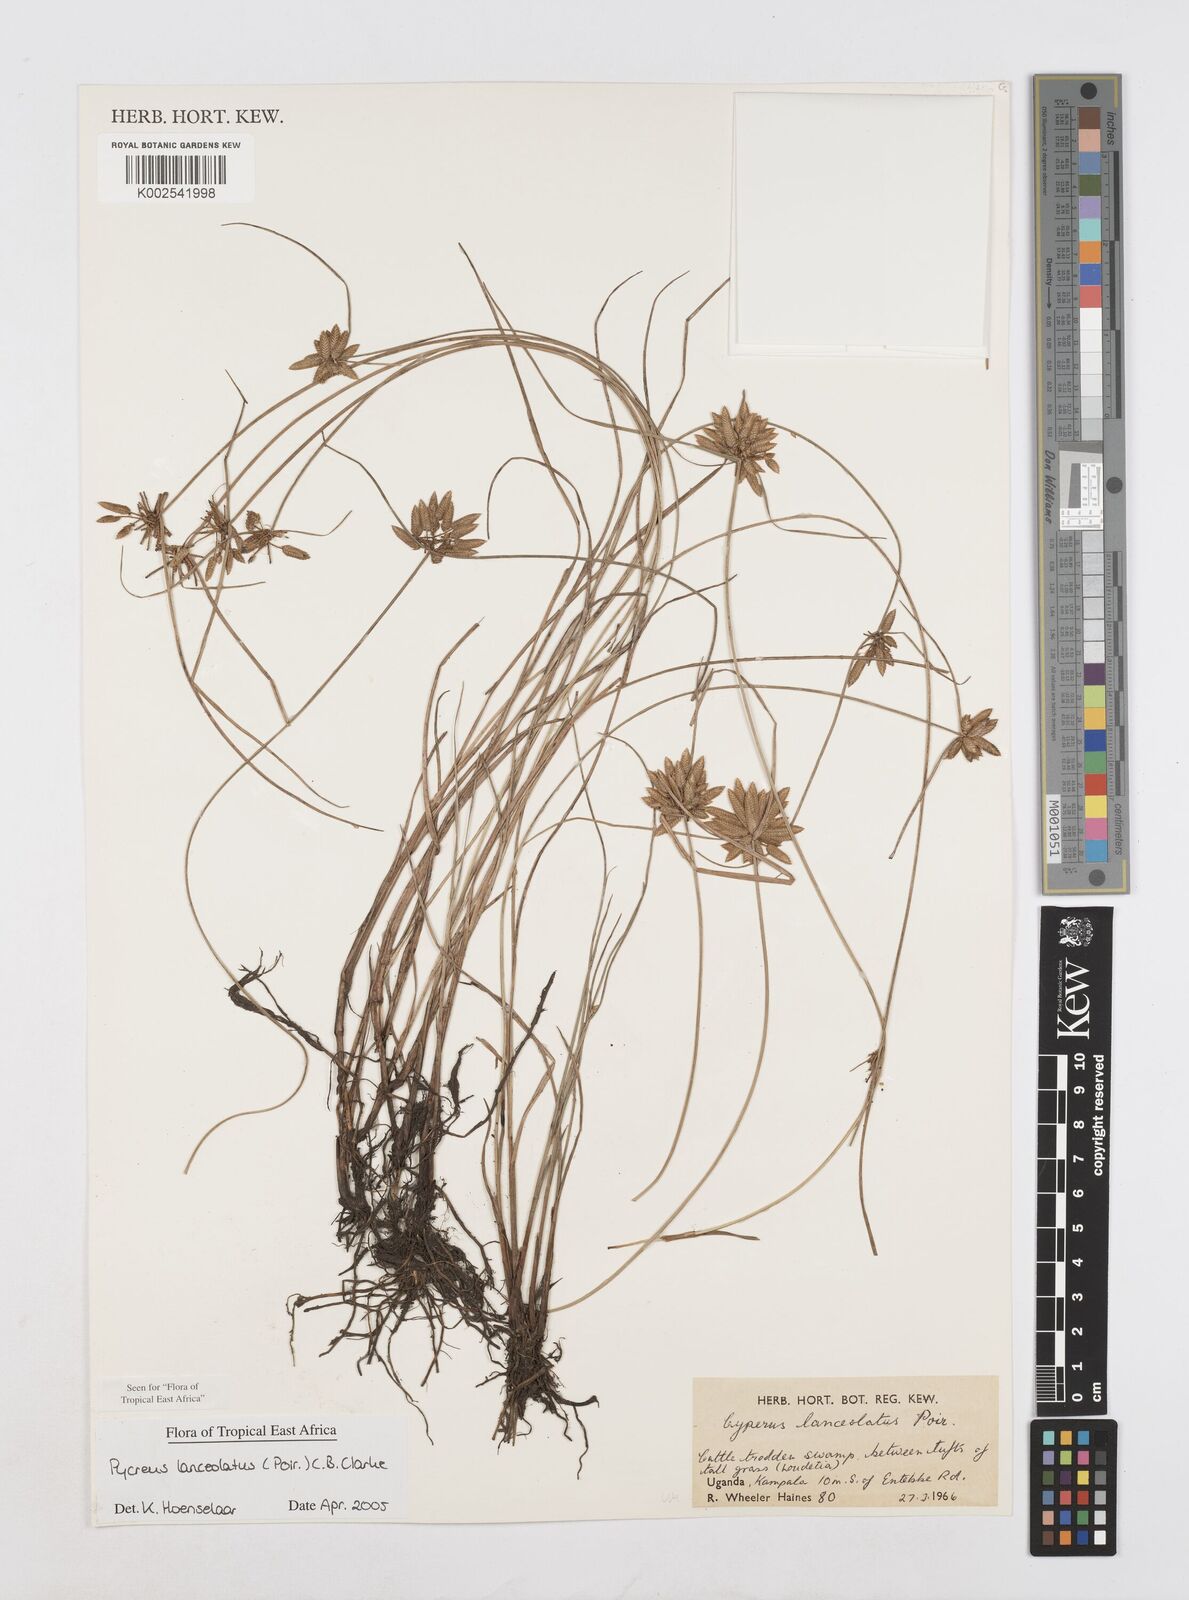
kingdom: Plantae
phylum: Tracheophyta
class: Liliopsida
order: Poales
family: Cyperaceae
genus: Cyperus
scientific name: Cyperus lanceolatus
